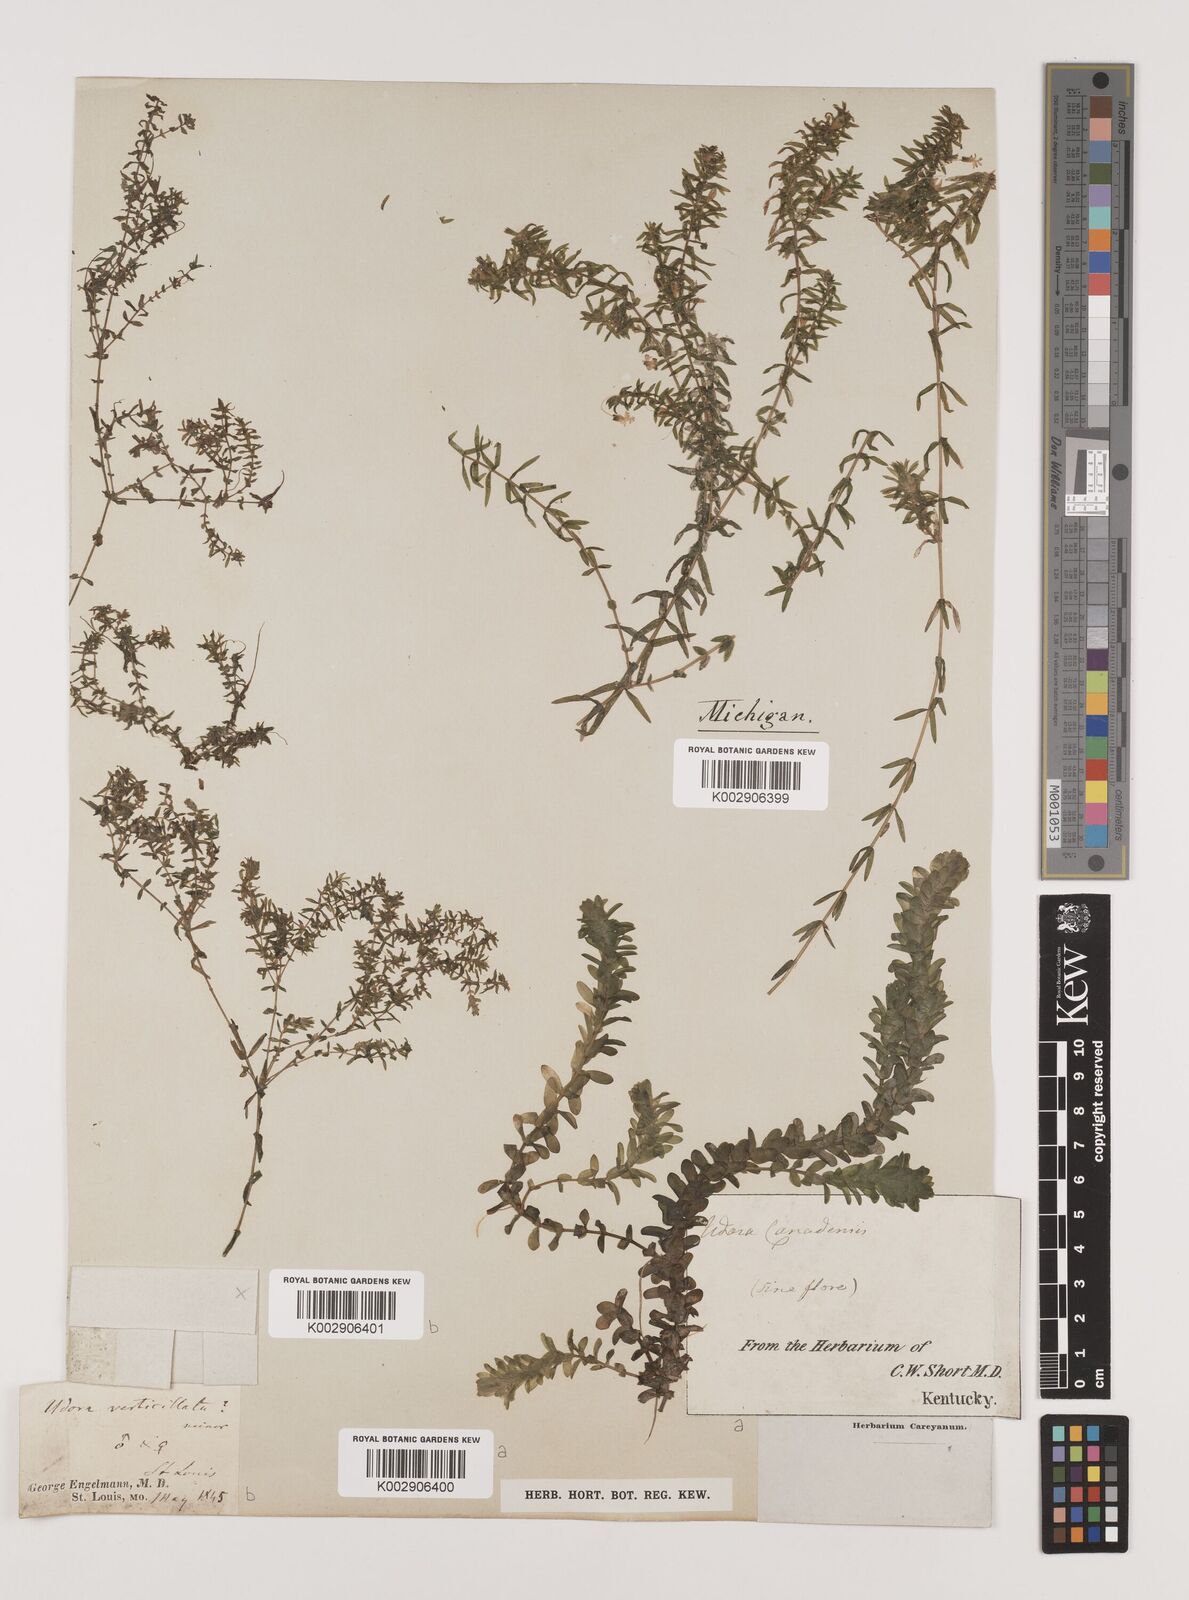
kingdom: Plantae
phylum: Tracheophyta
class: Liliopsida
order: Alismatales
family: Hydrocharitaceae
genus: Elodea
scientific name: Elodea canadensis
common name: Canadian waterweed
